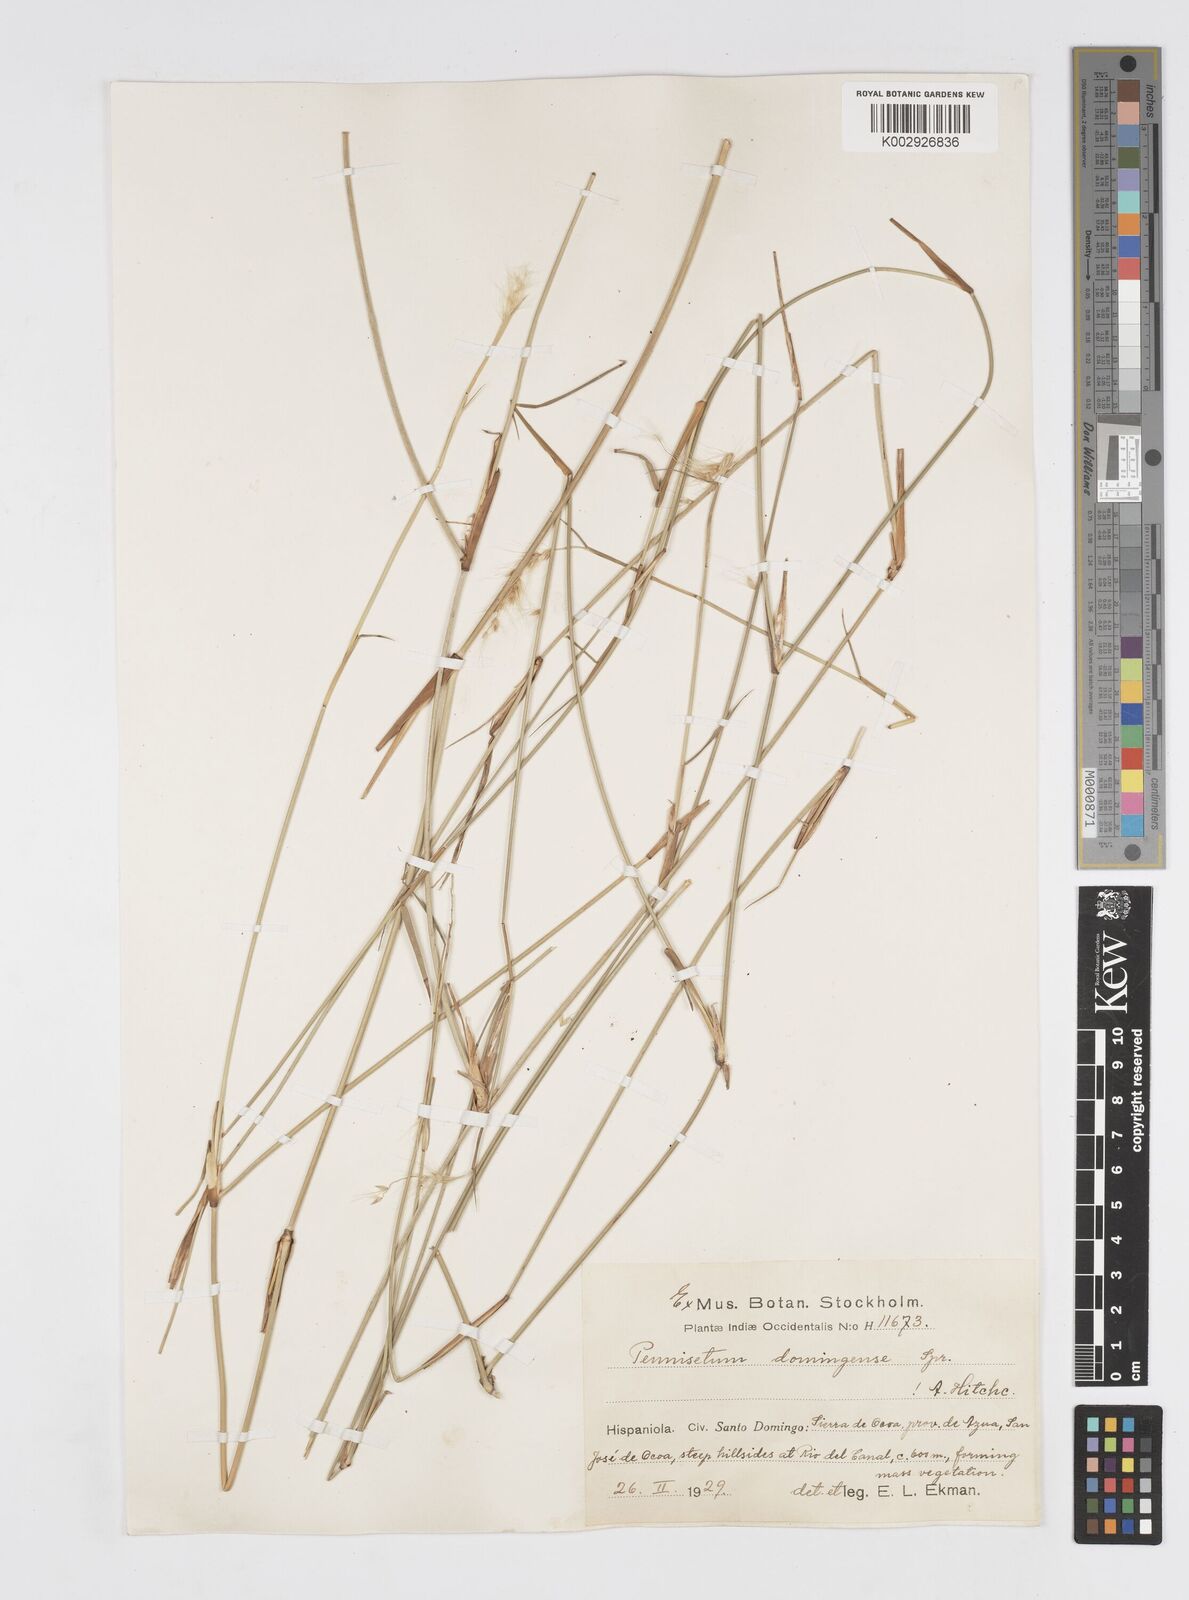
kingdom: Plantae
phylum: Tracheophyta
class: Liliopsida
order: Poales
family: Poaceae
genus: Cenchrus
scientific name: Cenchrus domingensis
